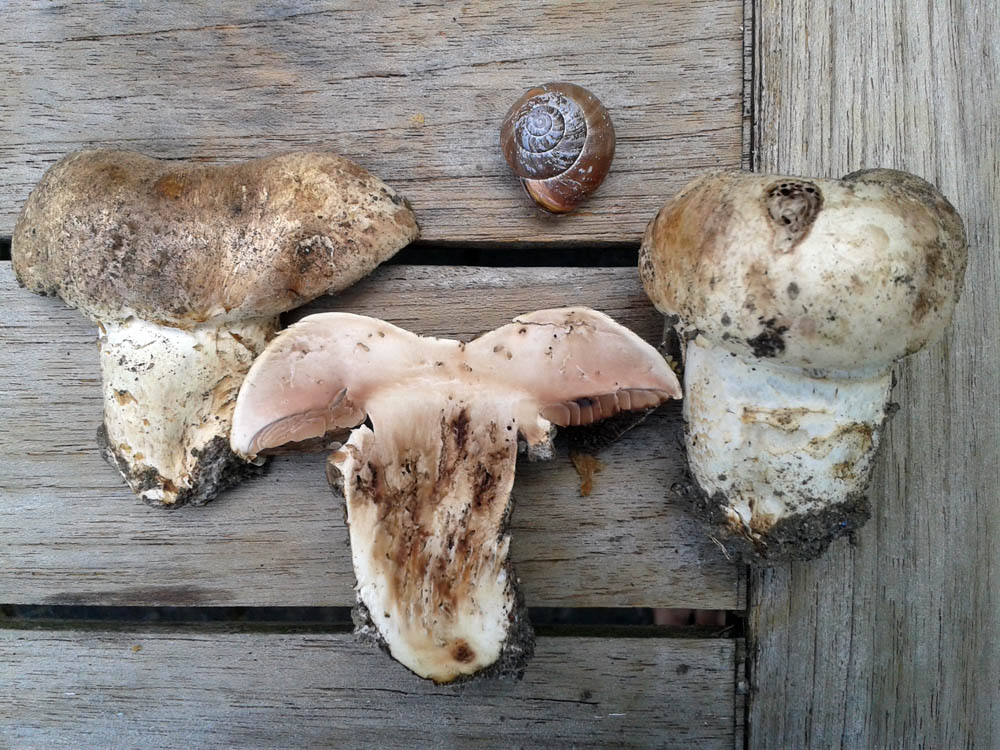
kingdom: Fungi
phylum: Basidiomycota
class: Agaricomycetes
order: Agaricales
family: Agaricaceae
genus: Agaricus
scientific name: Agaricus bernardii
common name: strandengs-champignon
